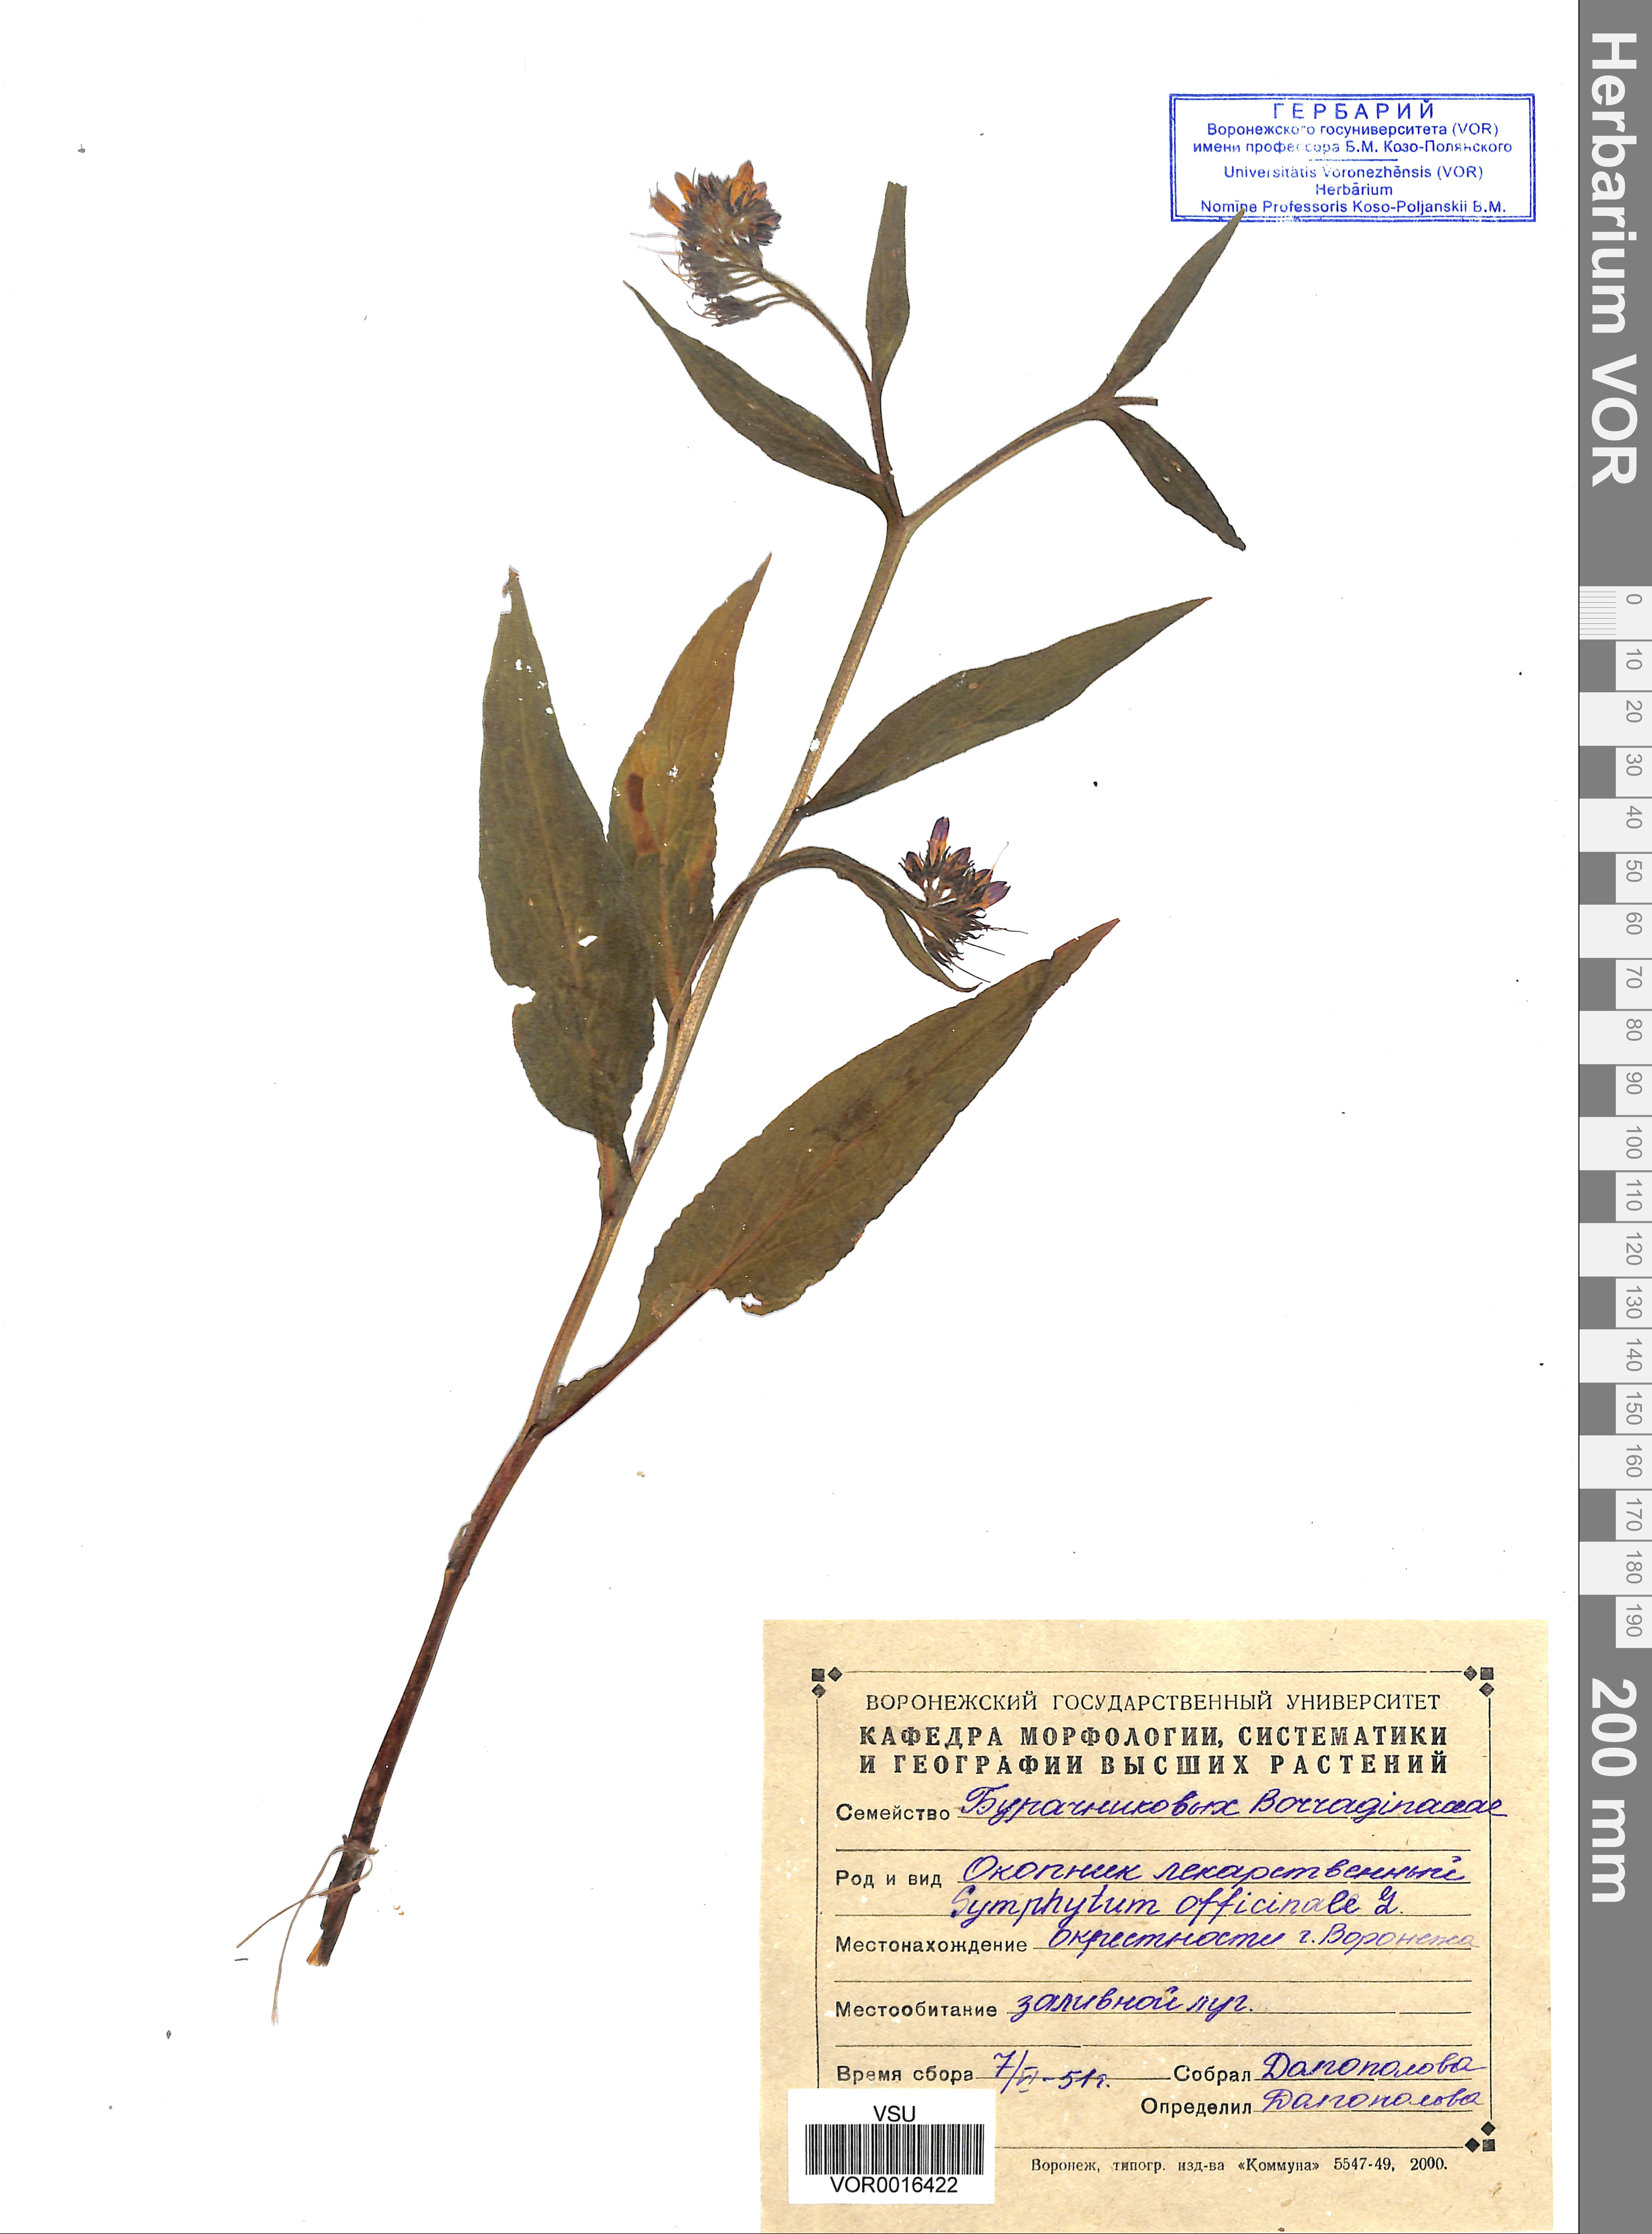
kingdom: Plantae
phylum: Tracheophyta
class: Magnoliopsida
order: Boraginales
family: Boraginaceae
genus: Symphytum
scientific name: Symphytum officinale
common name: Common comfrey
